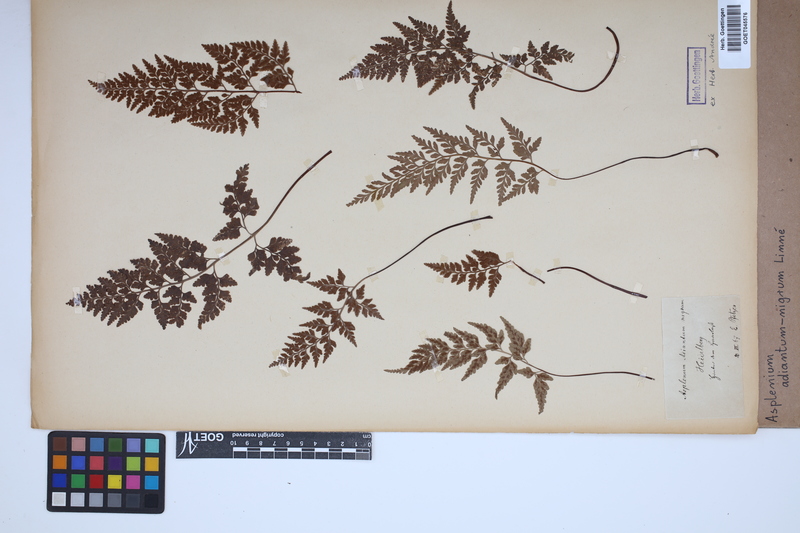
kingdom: Plantae
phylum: Tracheophyta
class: Polypodiopsida
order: Polypodiales
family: Aspleniaceae
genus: Asplenium
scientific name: Asplenium adiantum-nigrum
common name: Black spleenwort
